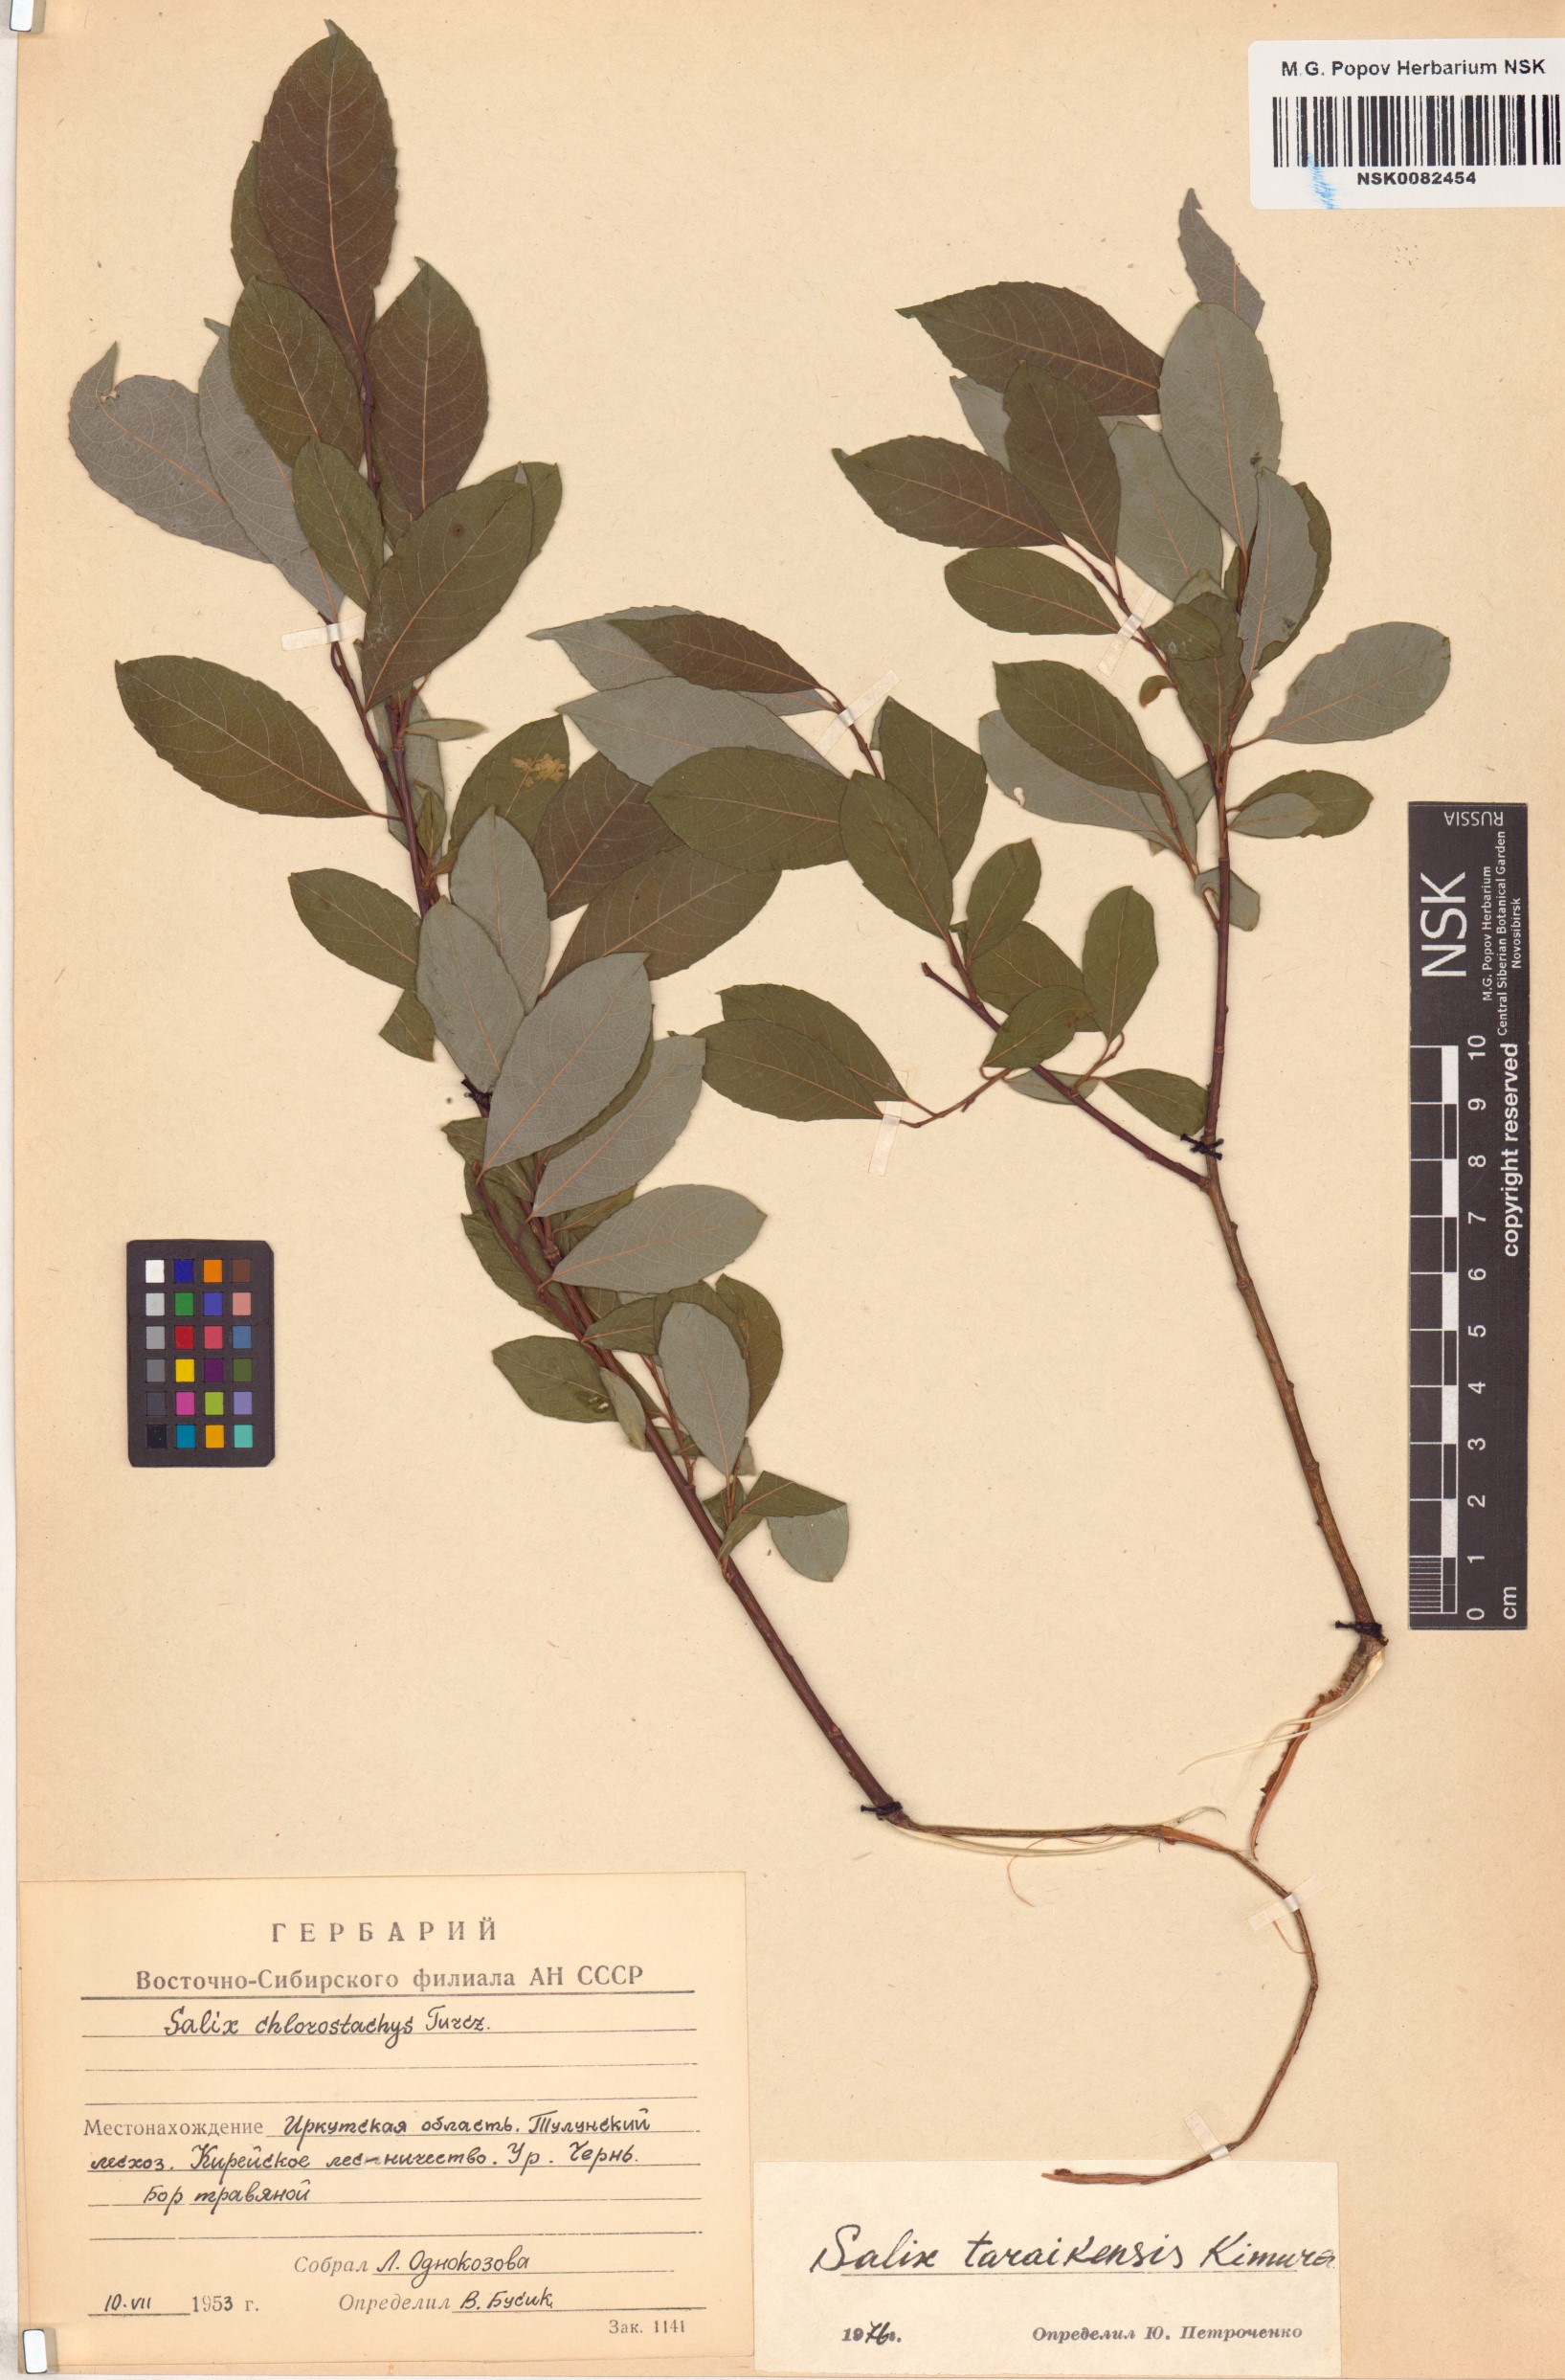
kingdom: Plantae
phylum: Tracheophyta
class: Magnoliopsida
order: Malpighiales
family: Salicaceae
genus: Salix
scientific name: Salix taraikensis
